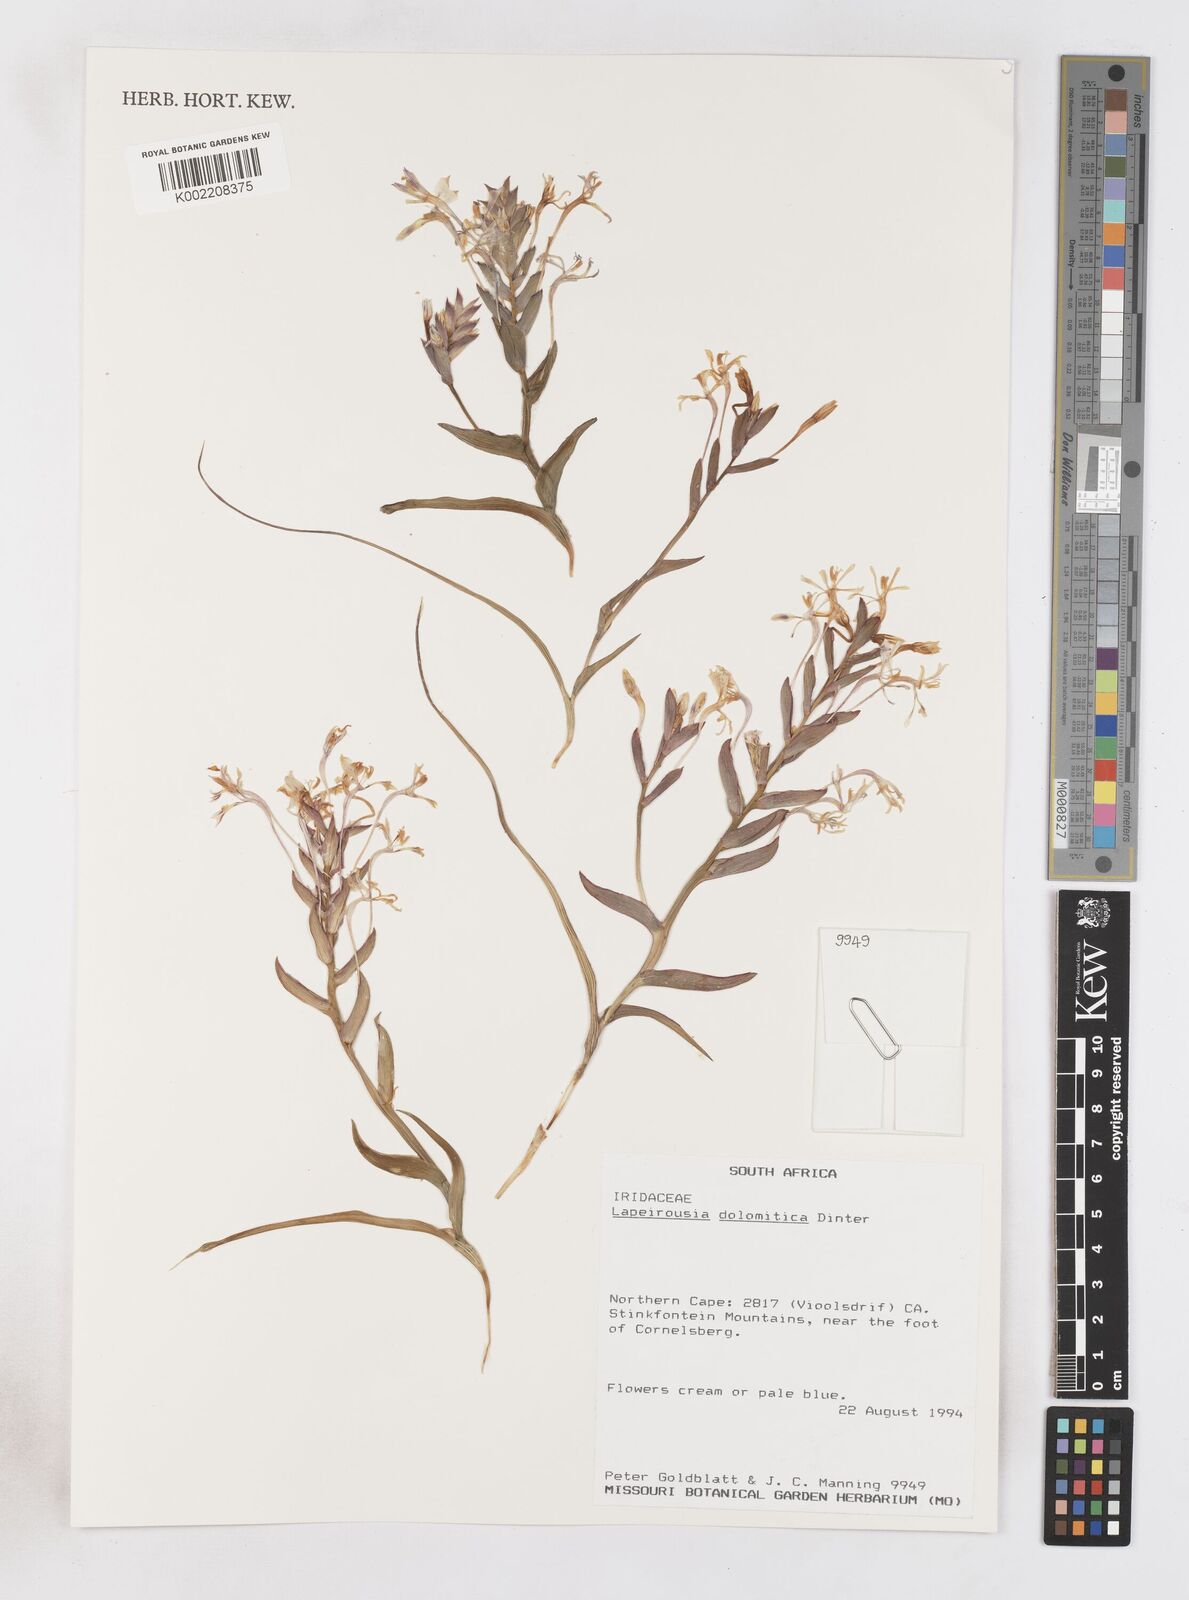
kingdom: Plantae
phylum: Tracheophyta
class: Liliopsida
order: Asparagales
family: Iridaceae
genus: Lapeirousia
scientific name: Lapeirousia dolomitica
